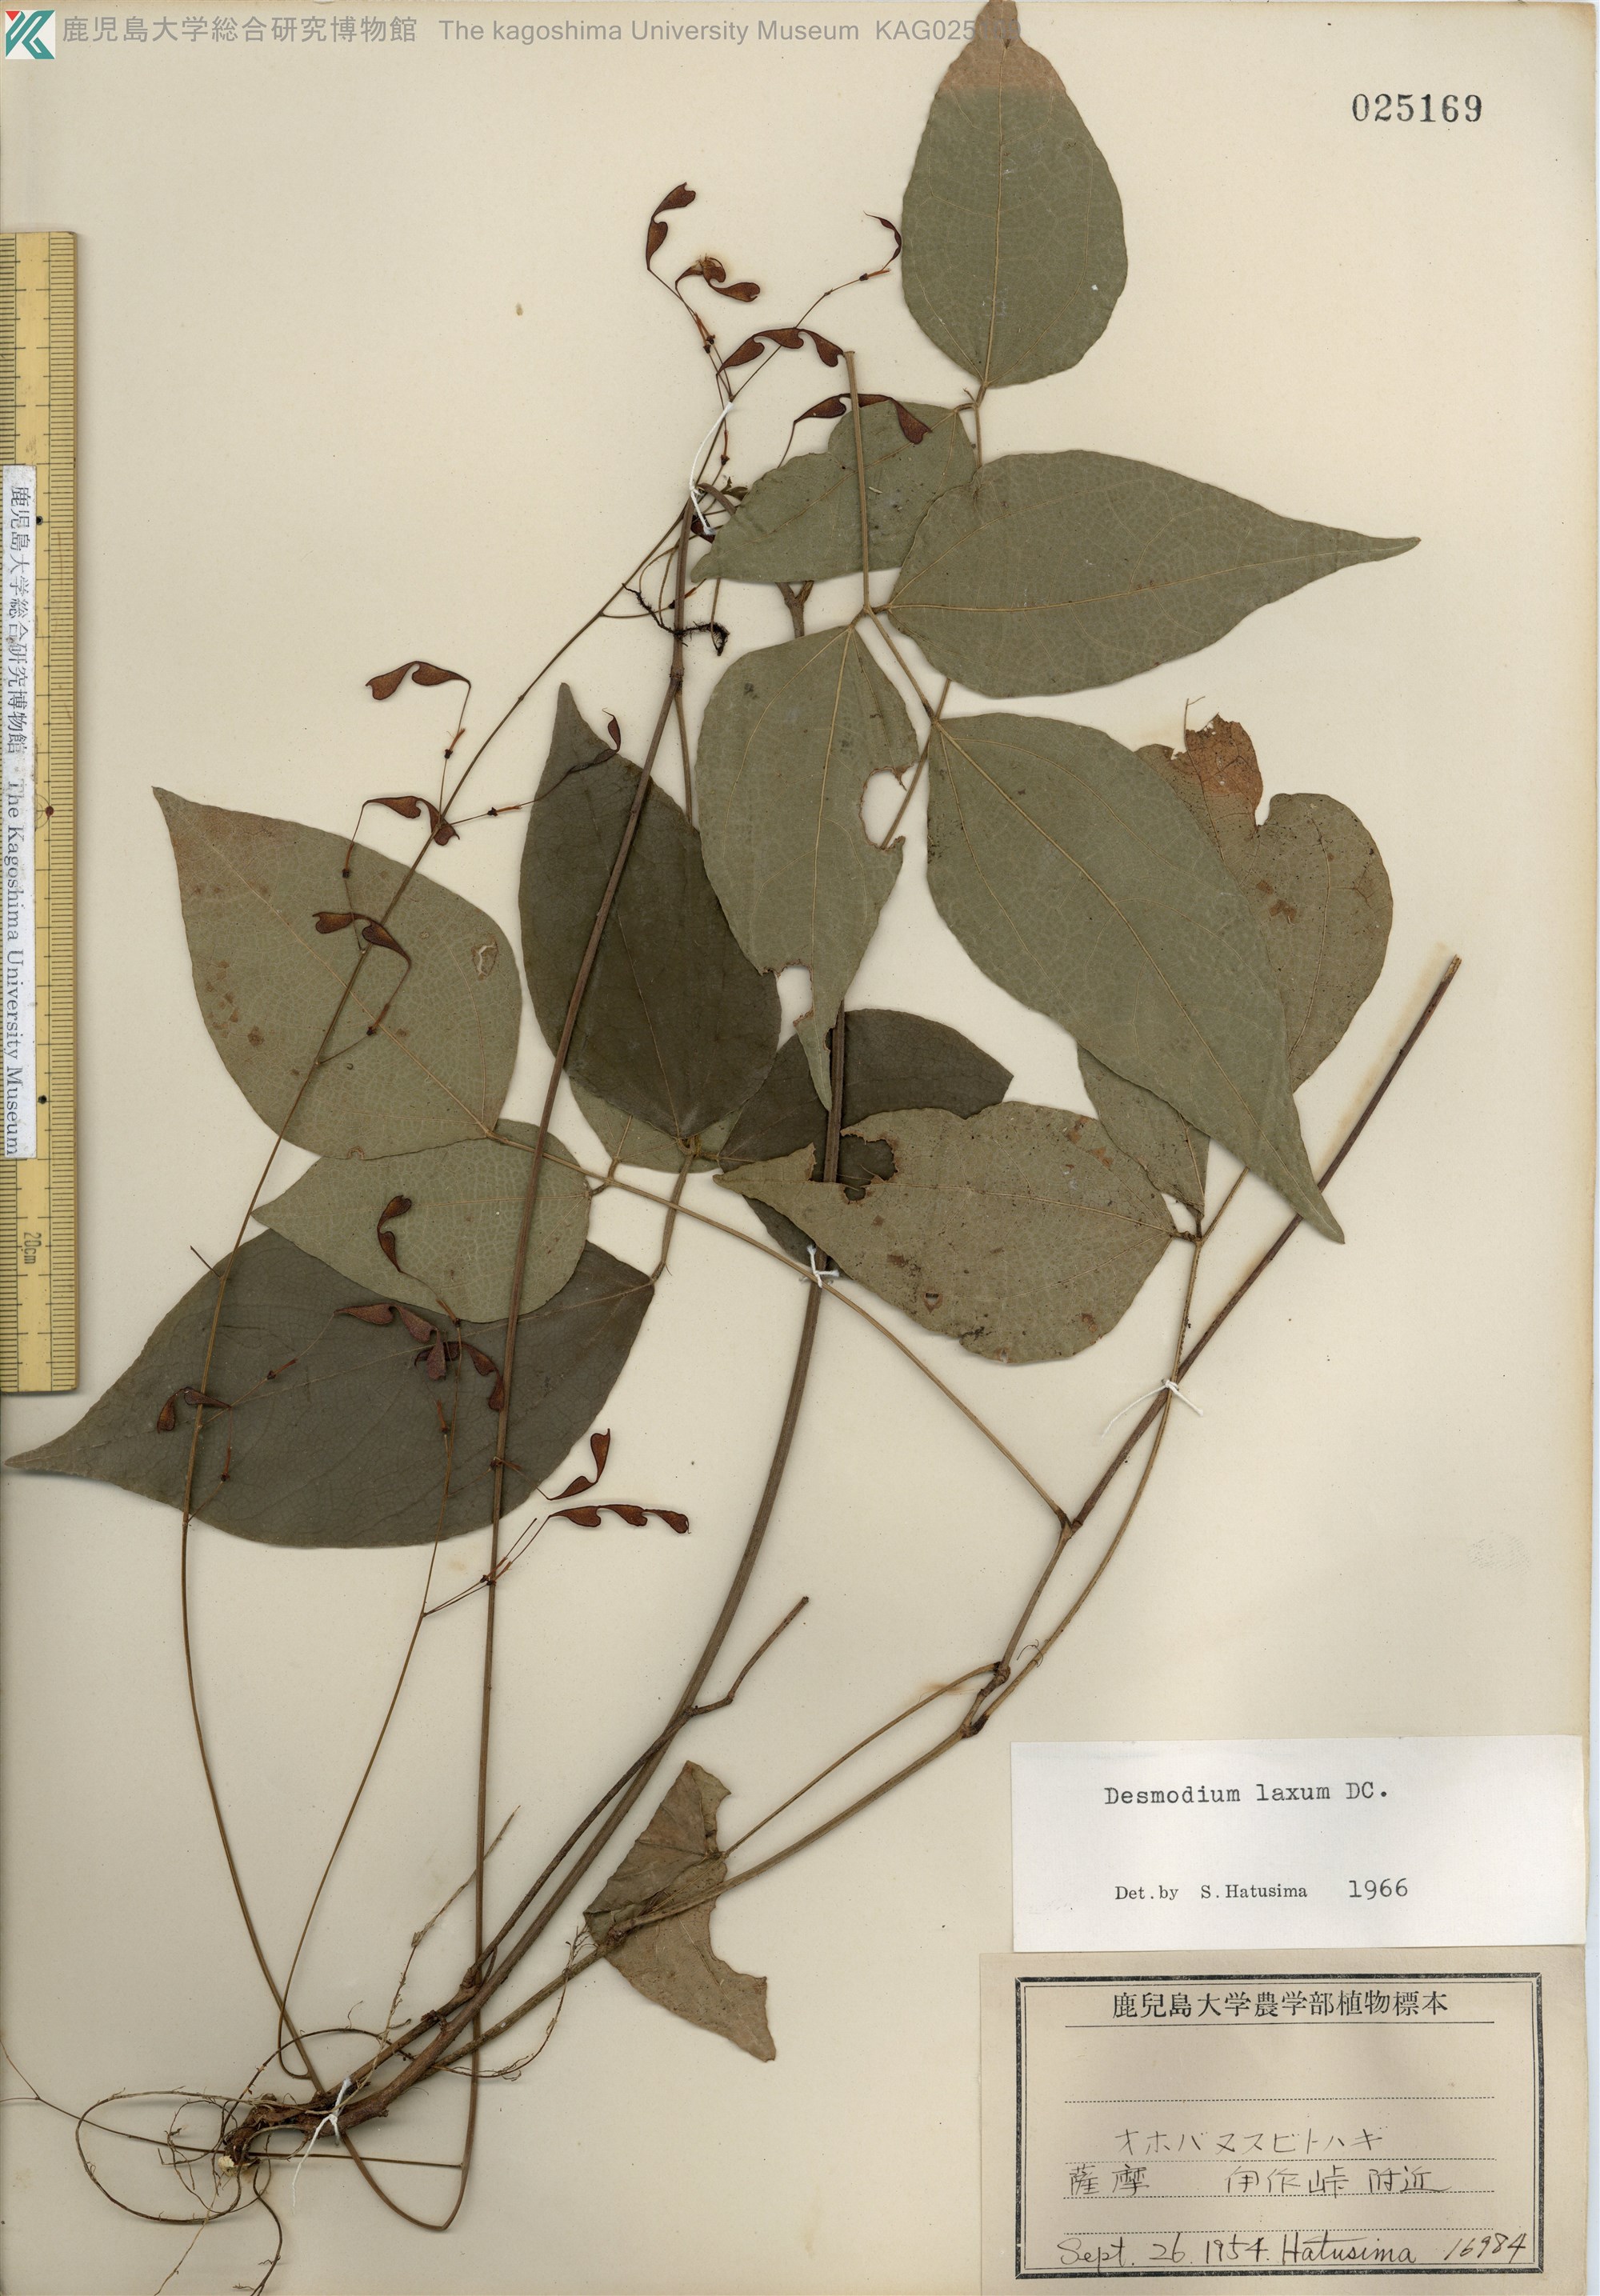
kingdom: Plantae
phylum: Tracheophyta
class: Magnoliopsida
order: Fabales
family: Fabaceae
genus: Desmodium
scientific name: Desmodium laxum
